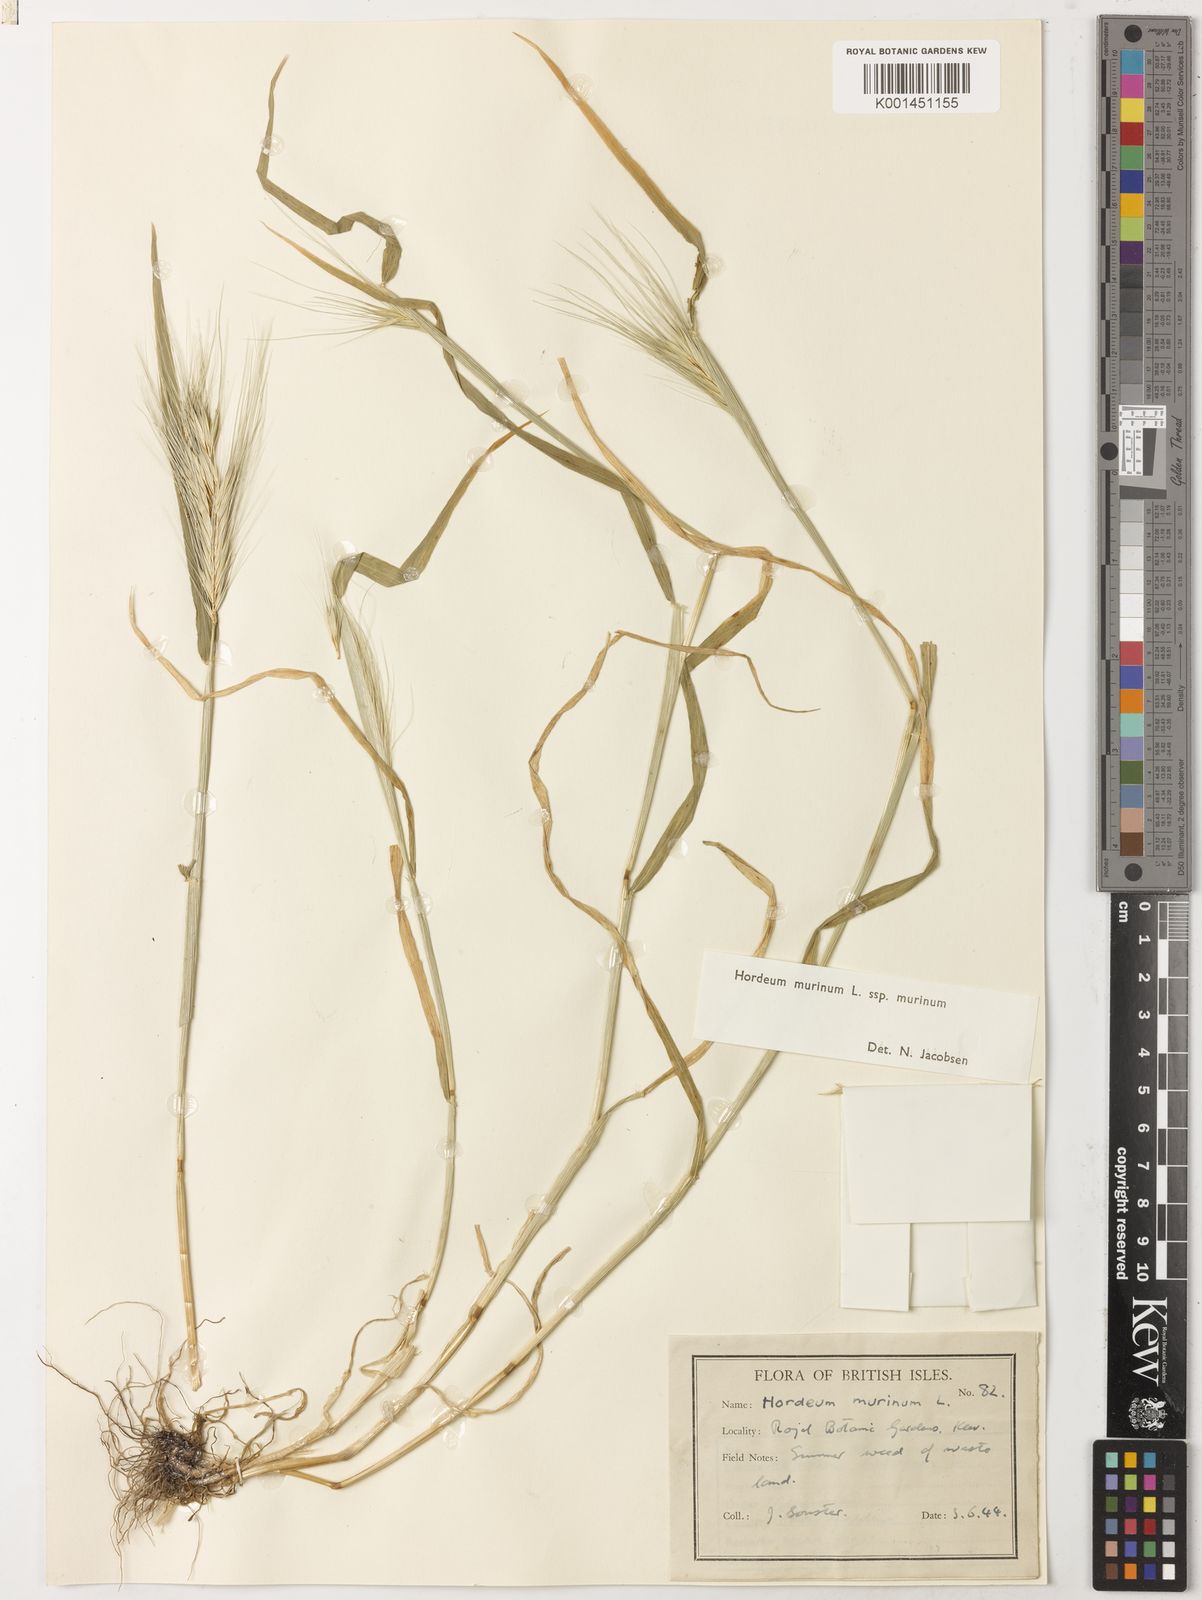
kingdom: Plantae
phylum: Tracheophyta
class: Liliopsida
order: Poales
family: Poaceae
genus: Hordeum
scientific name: Hordeum murinum
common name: Wall barley
